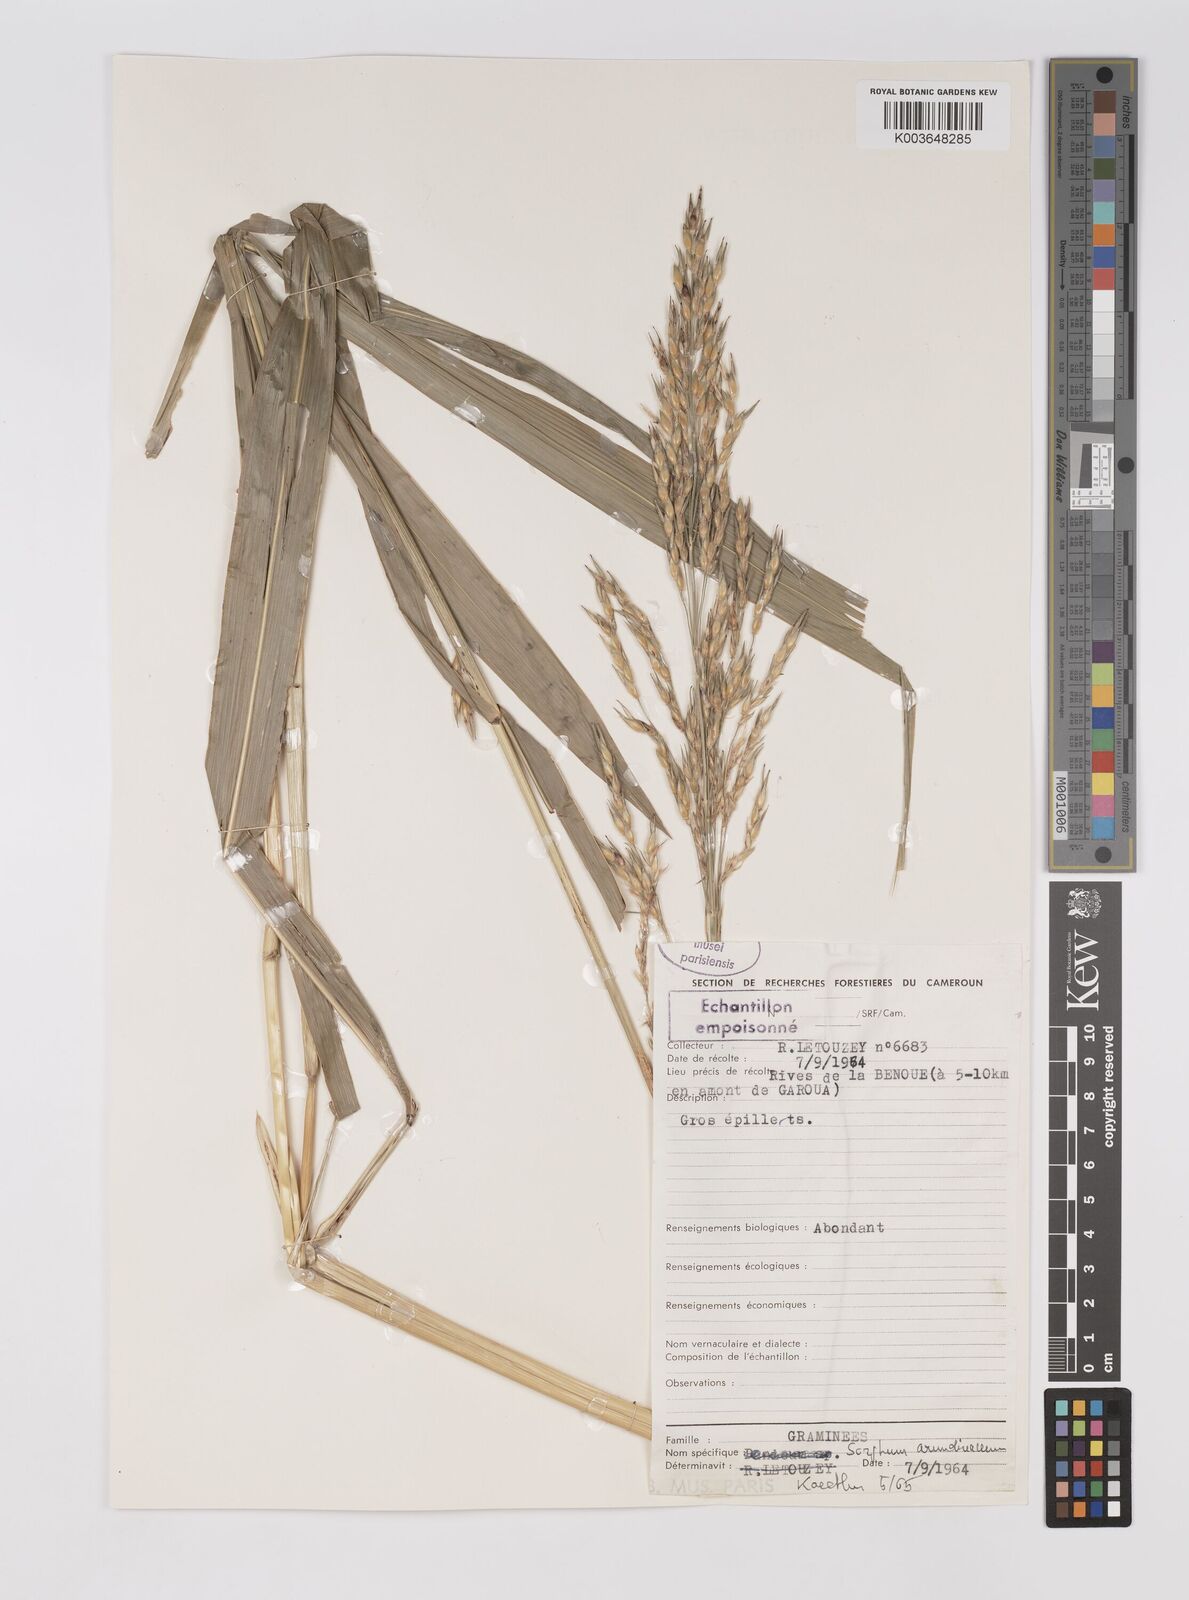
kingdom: Plantae
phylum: Tracheophyta
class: Liliopsida
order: Poales
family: Poaceae
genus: Sorghum
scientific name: Sorghum arundinaceum
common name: Sorghum
